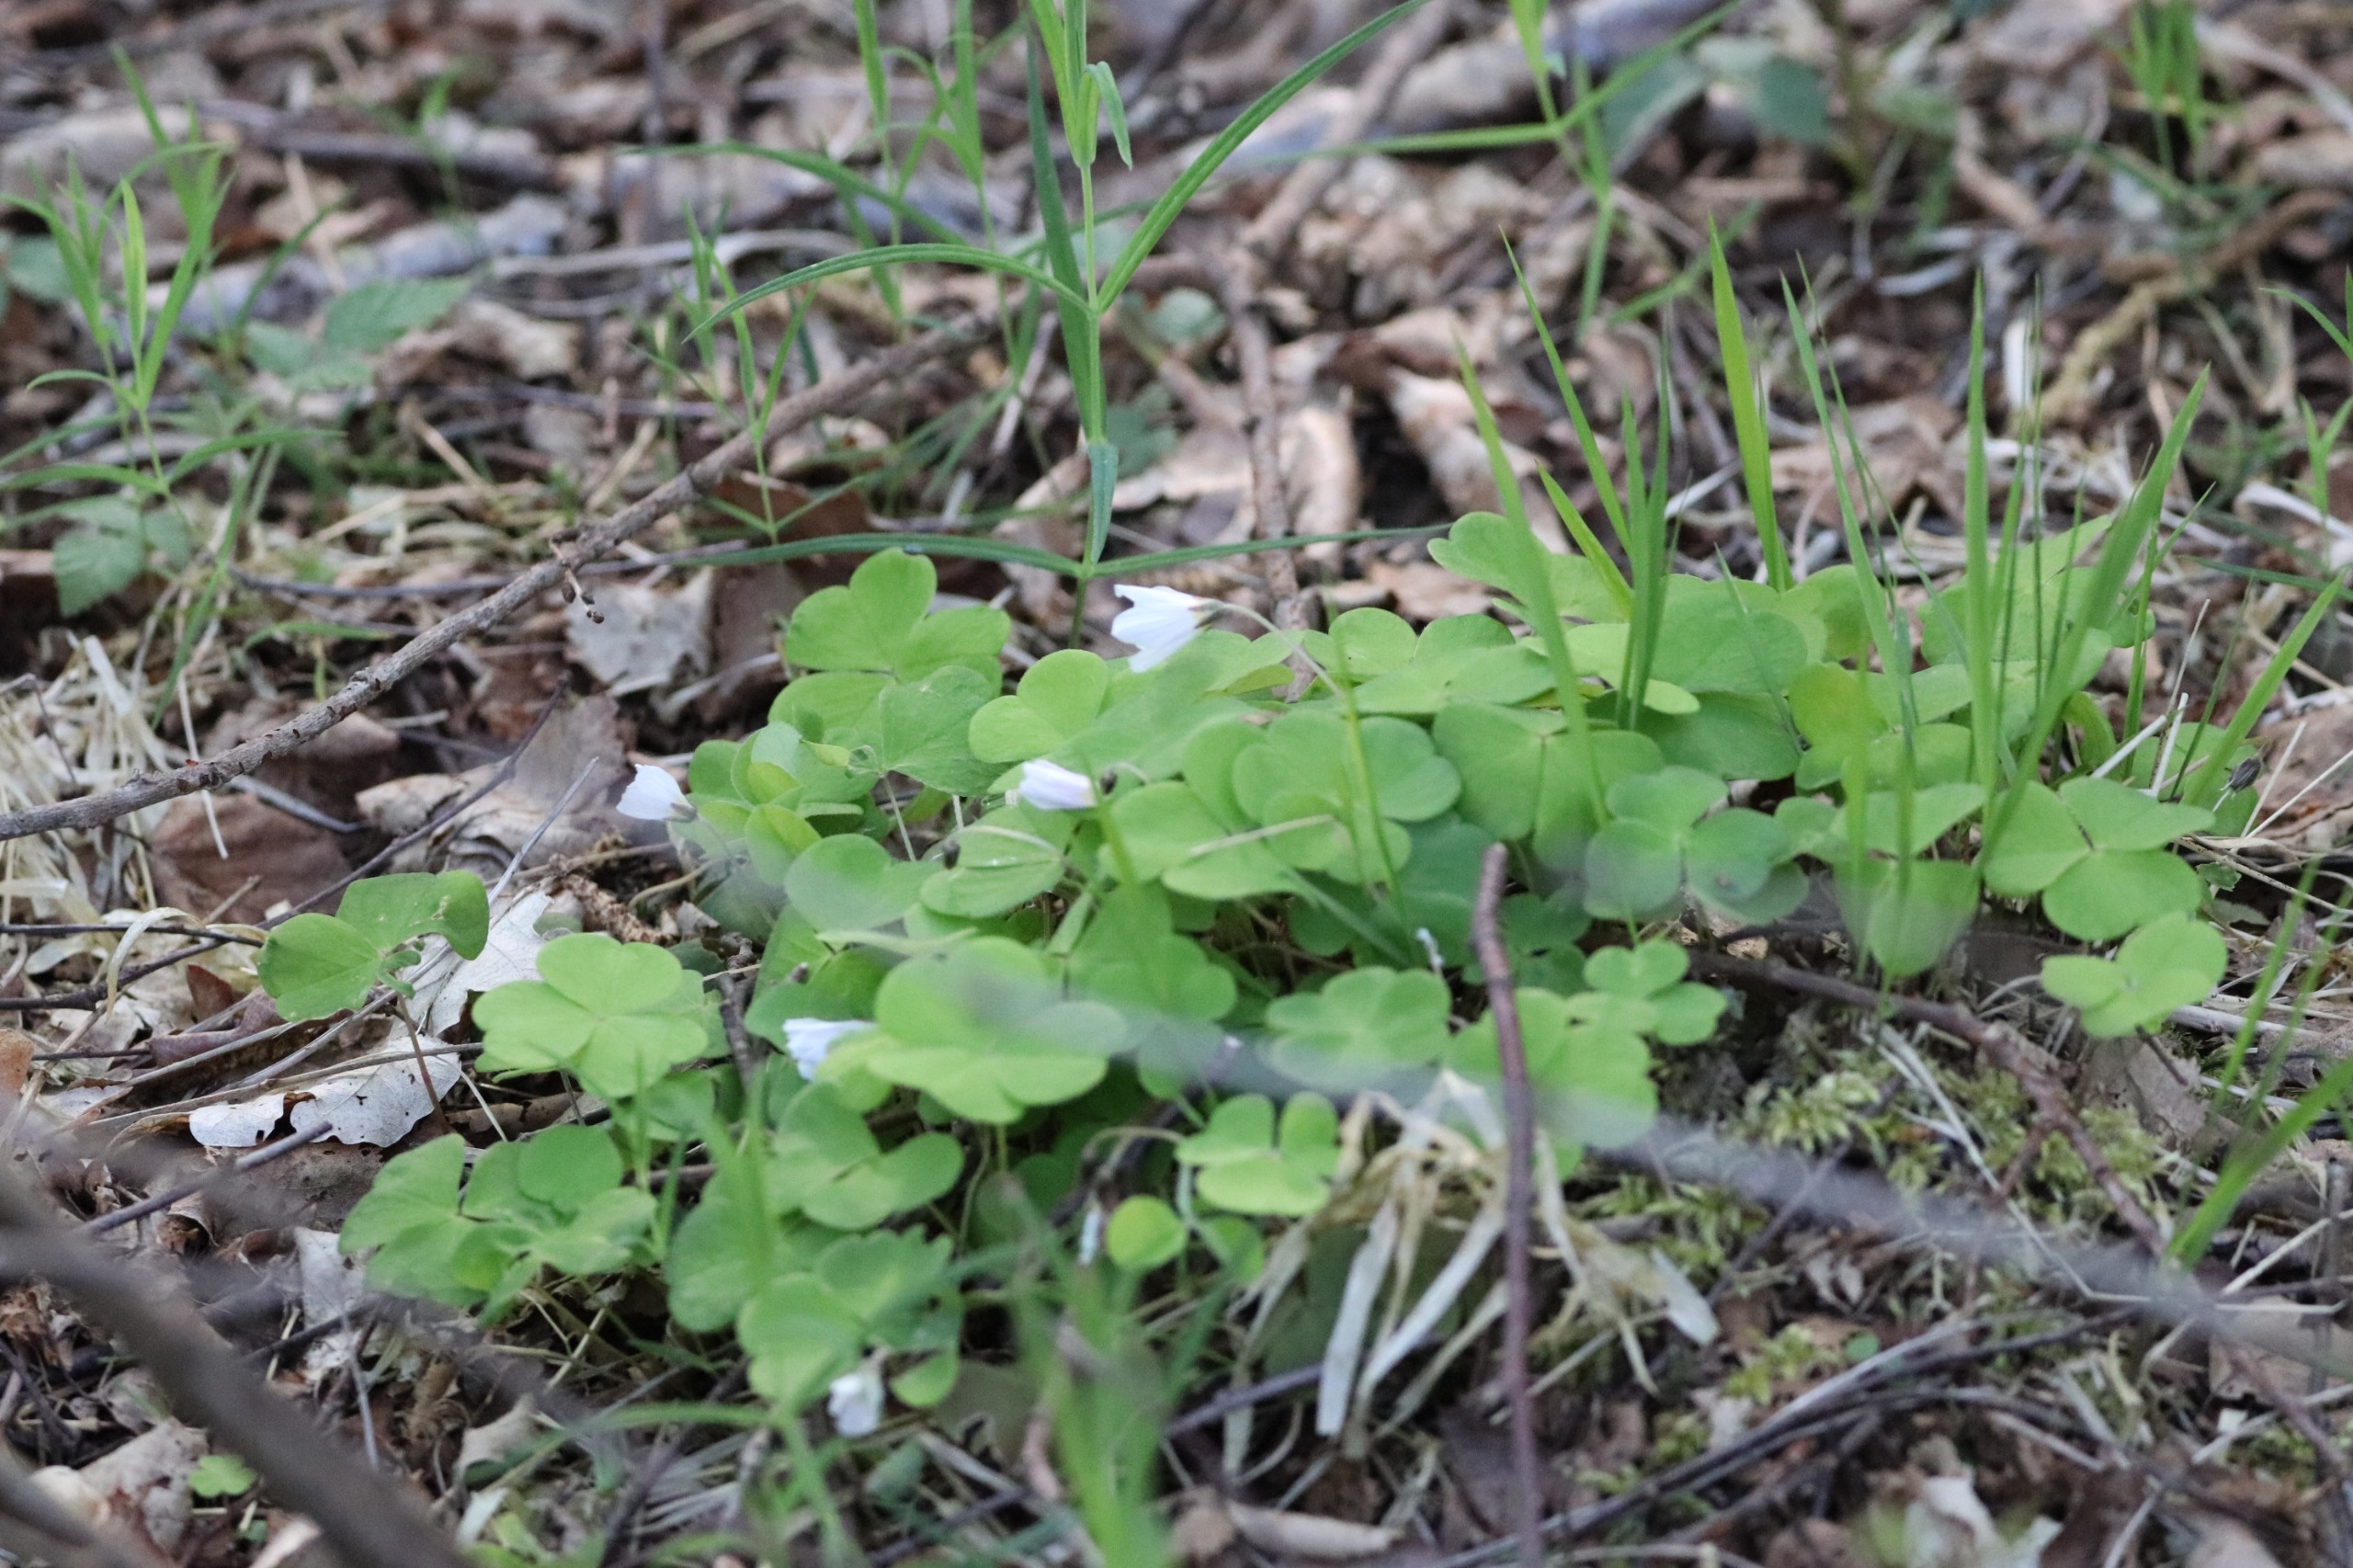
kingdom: Plantae
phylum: Tracheophyta
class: Magnoliopsida
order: Oxalidales
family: Oxalidaceae
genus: Oxalis
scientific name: Oxalis acetosella
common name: Skovsyre
